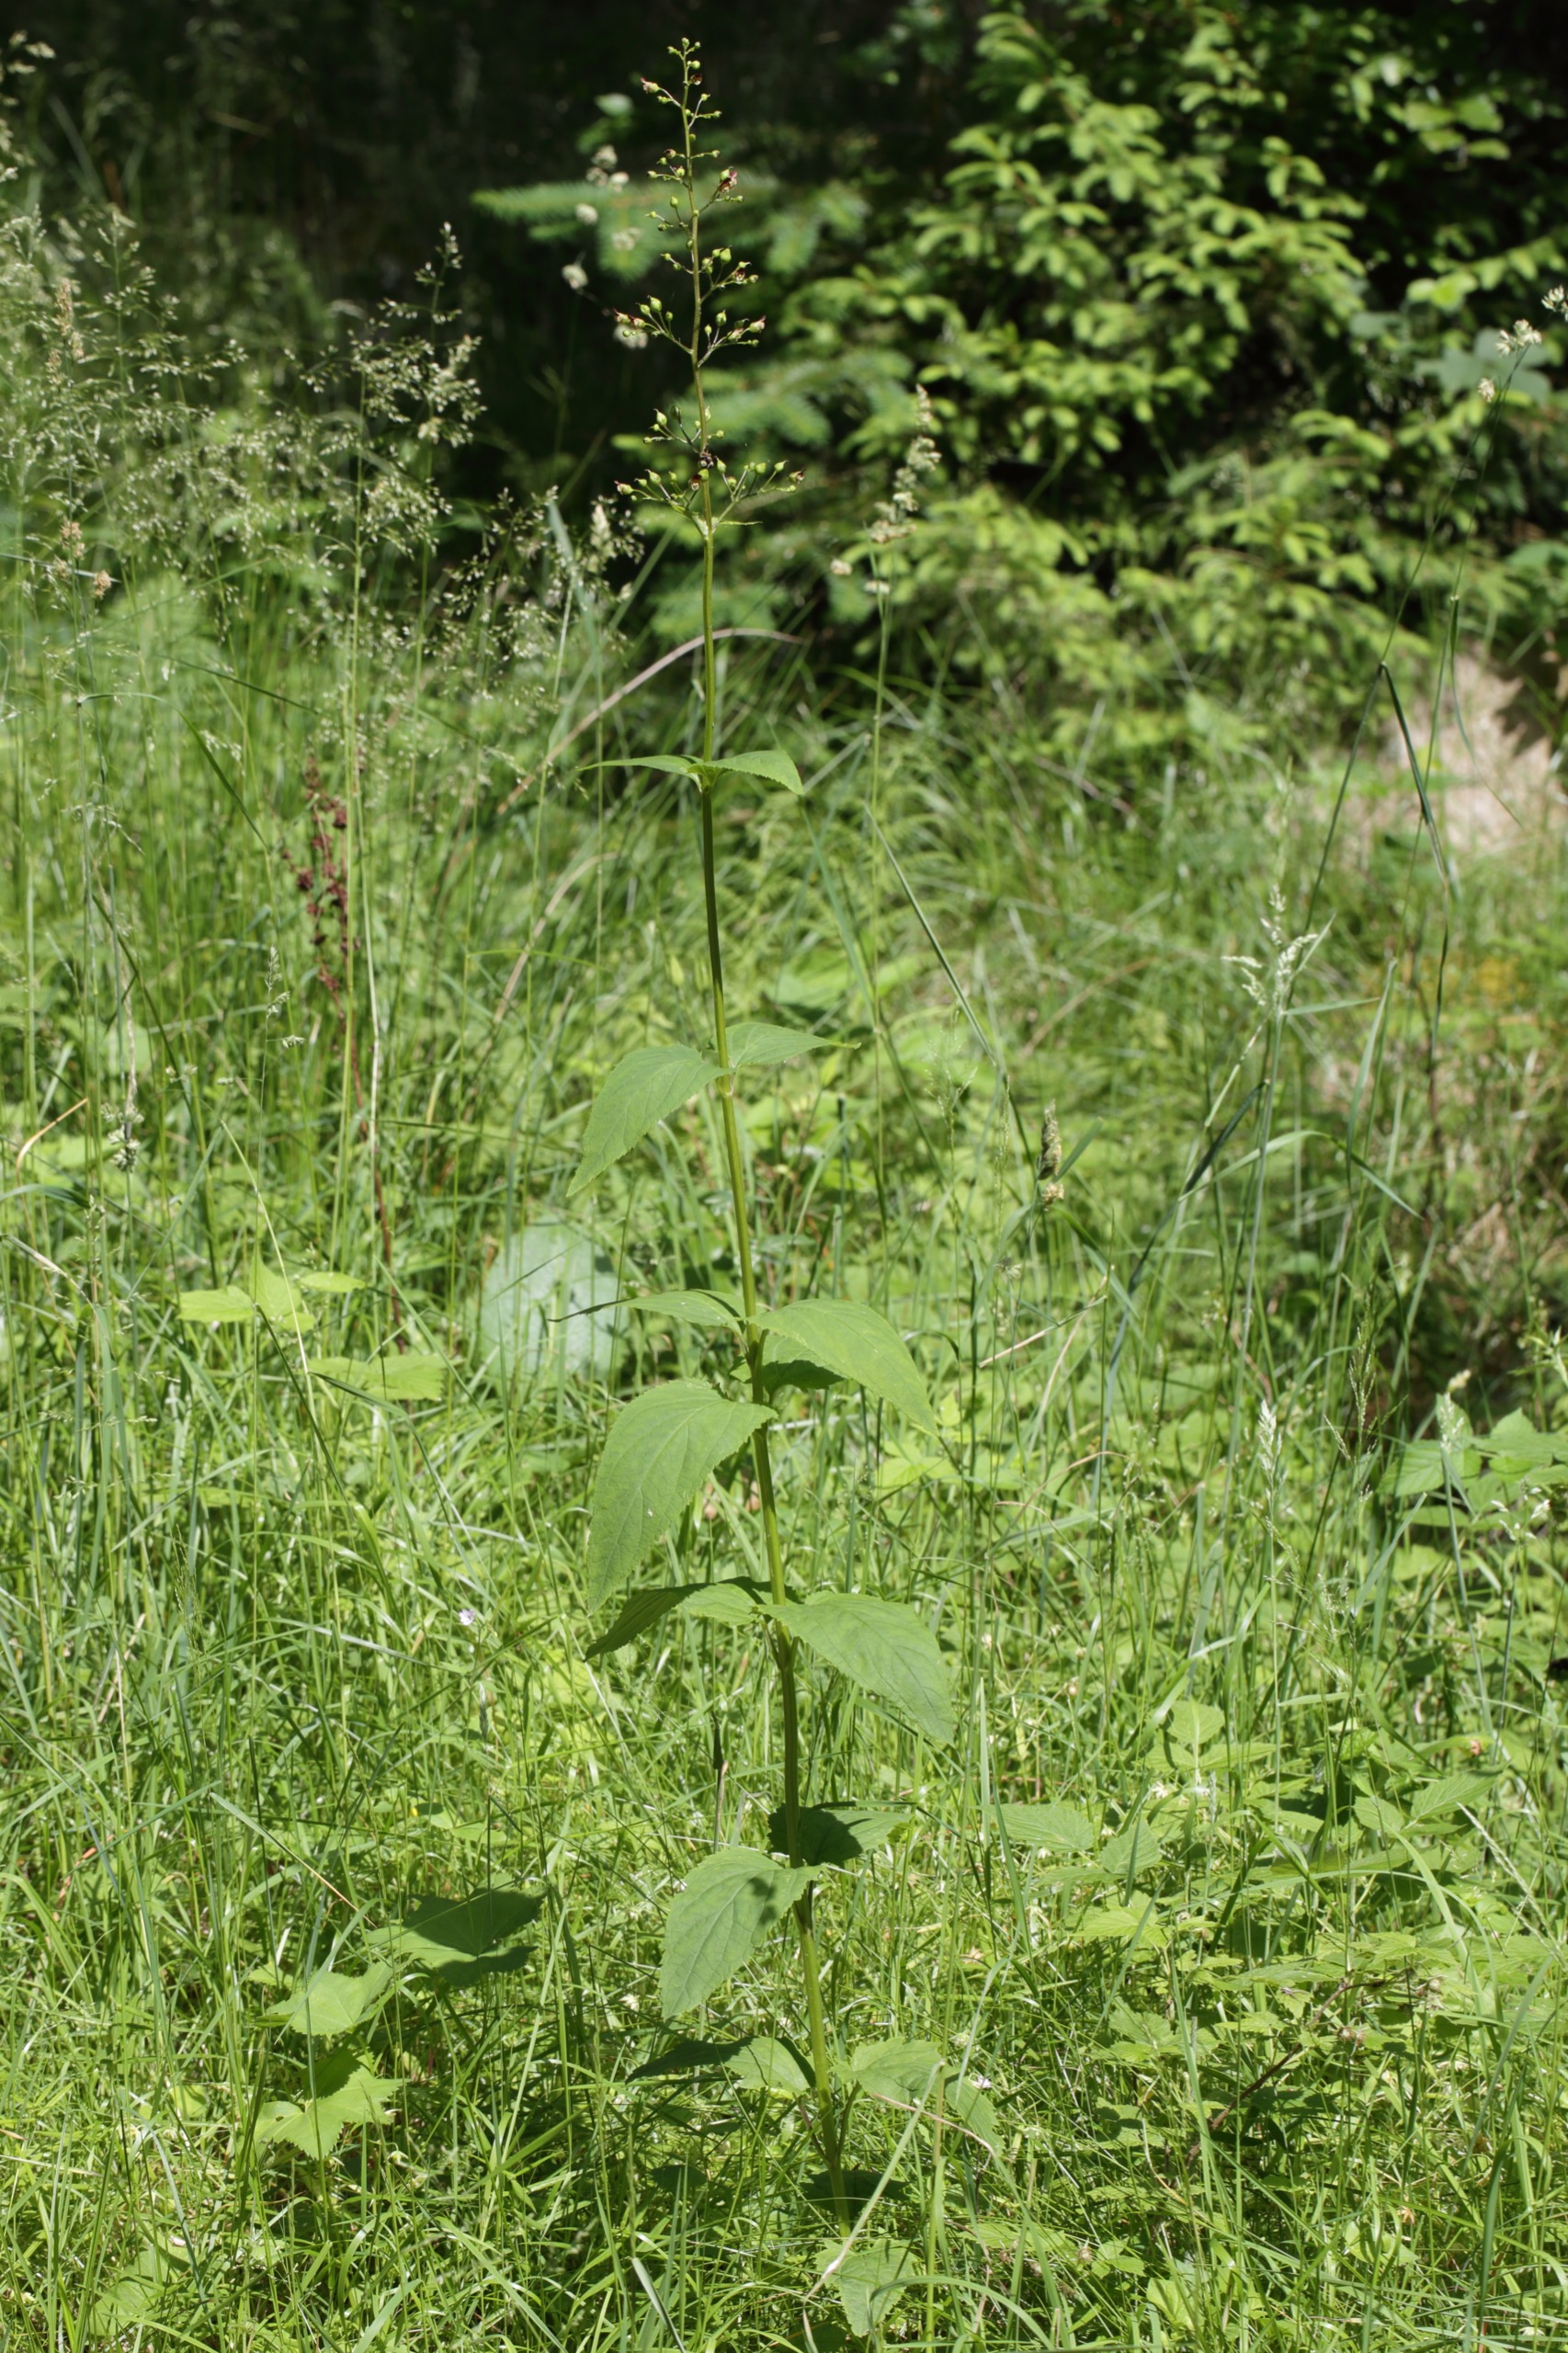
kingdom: Plantae
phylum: Tracheophyta
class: Magnoliopsida
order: Lamiales
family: Scrophulariaceae
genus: Scrophularia
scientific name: Scrophularia nodosa
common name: Knoldet brunrod
